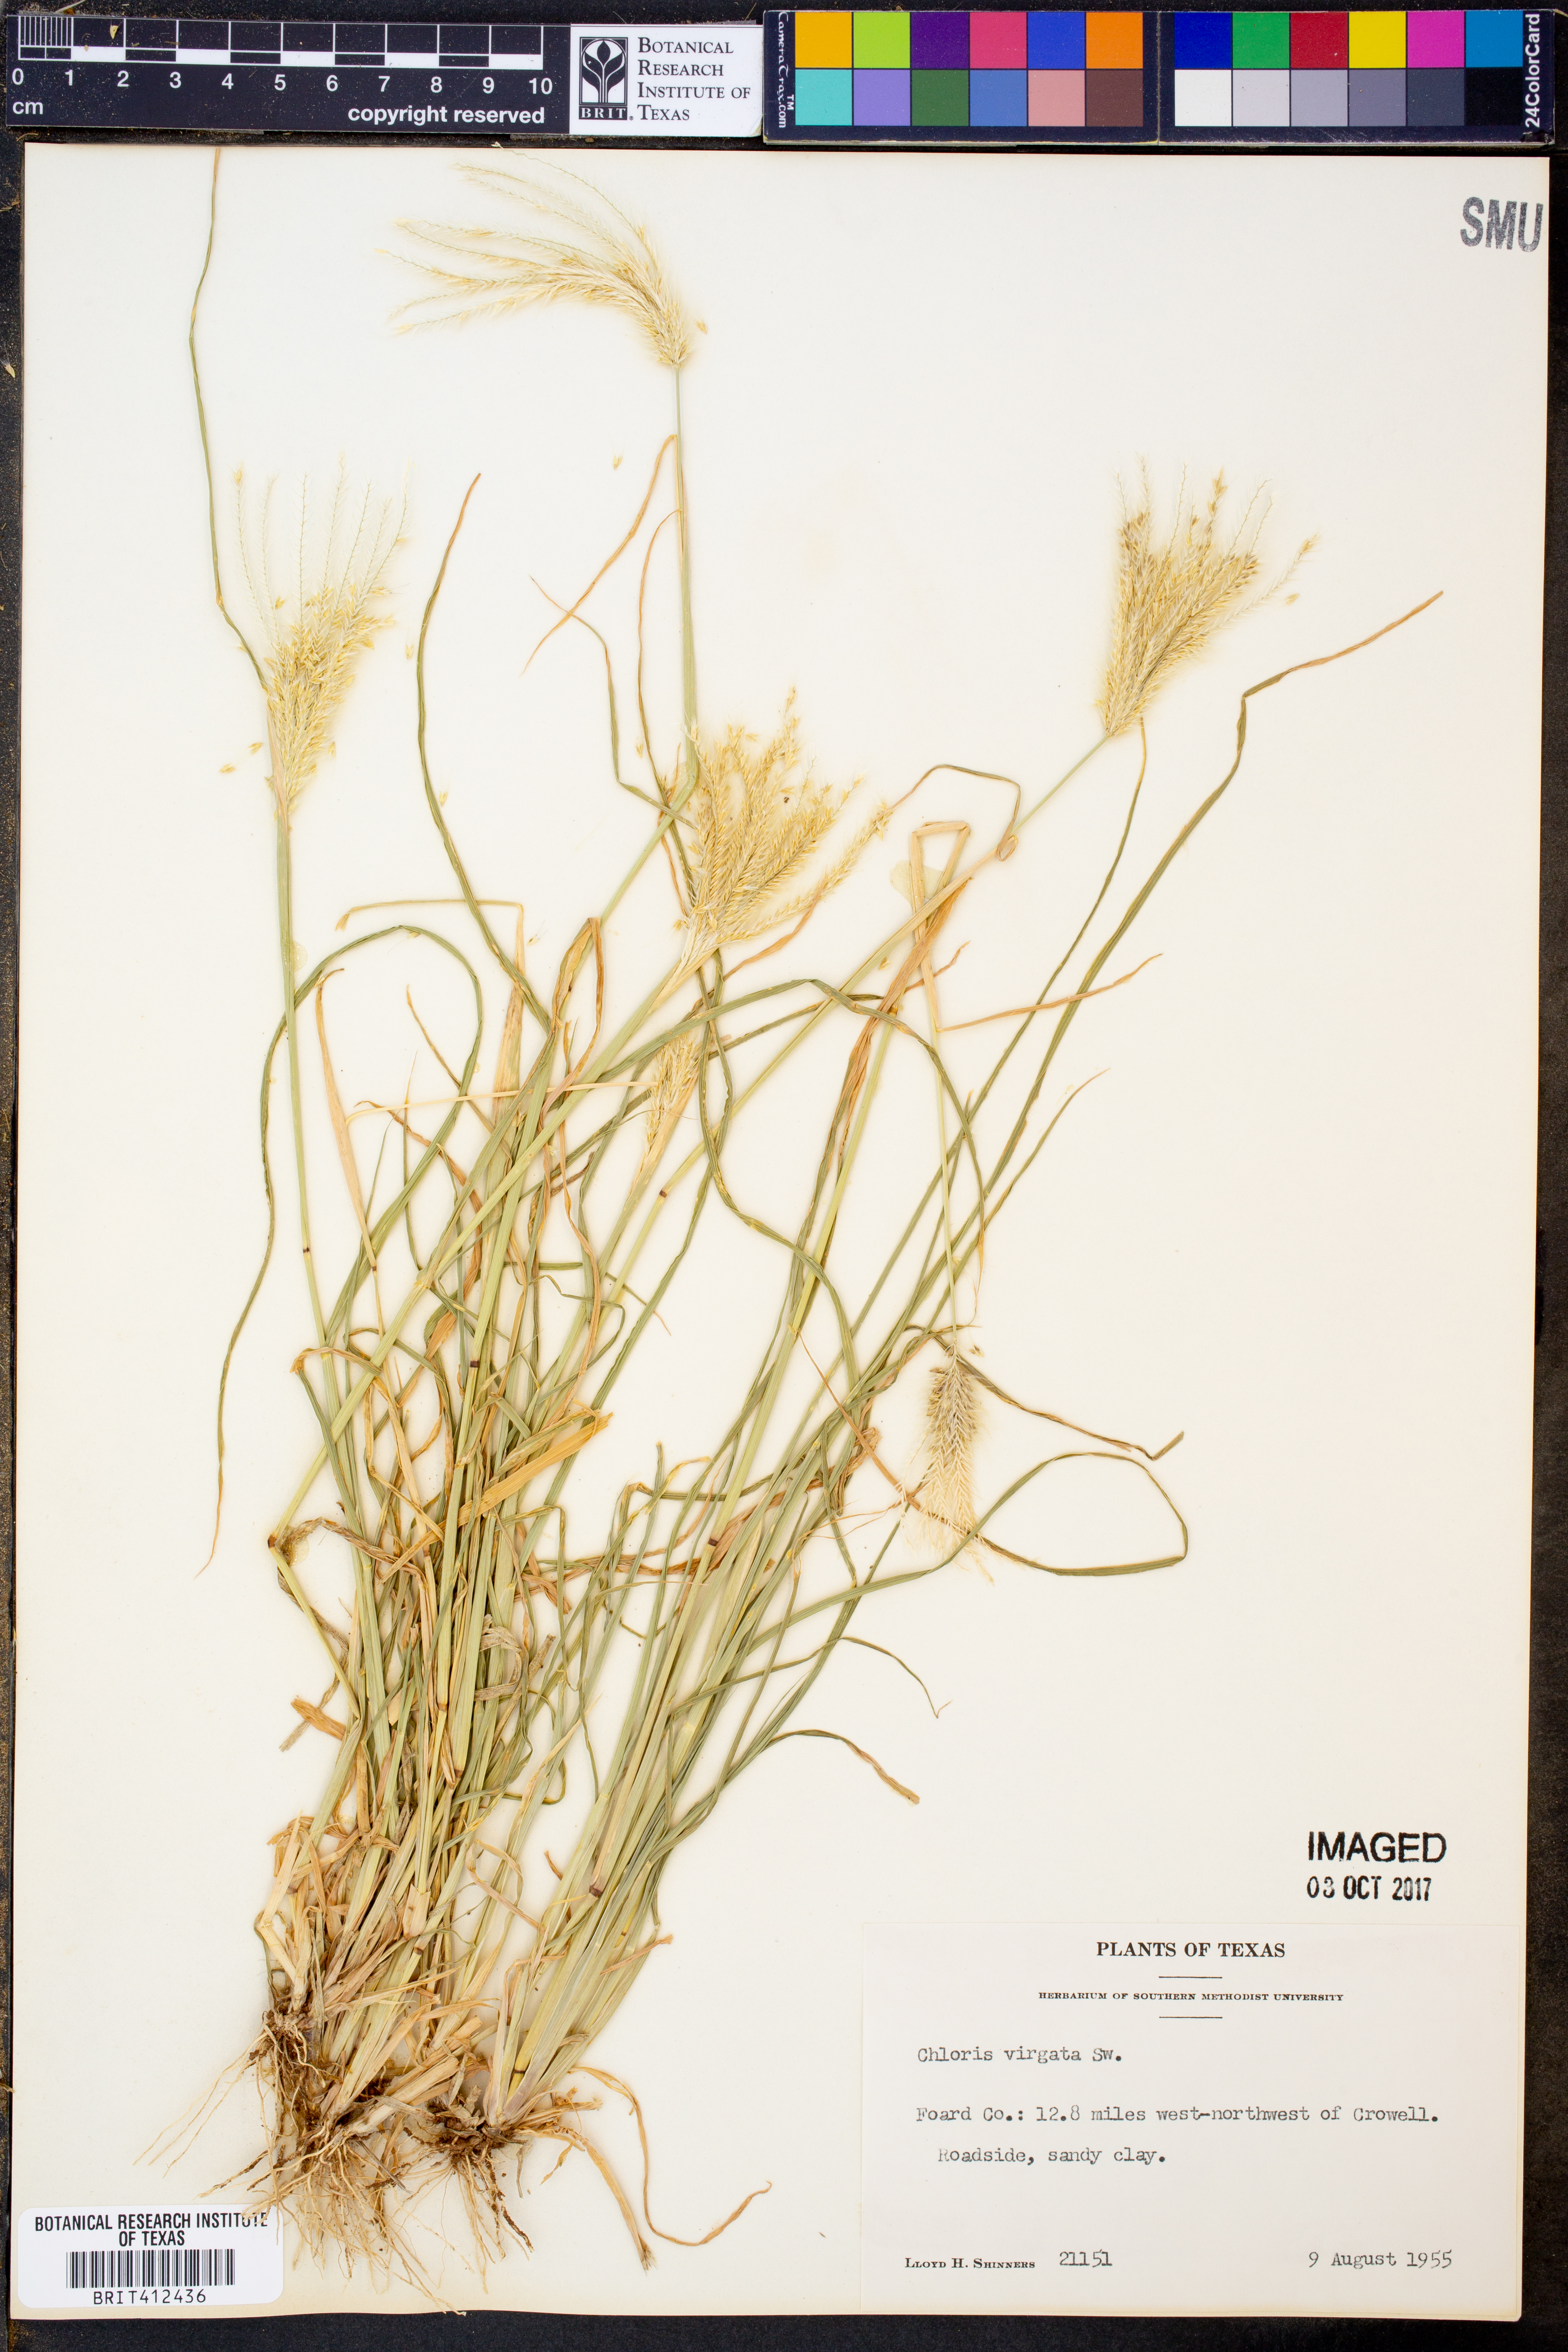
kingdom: Plantae
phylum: Tracheophyta
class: Liliopsida
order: Poales
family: Poaceae
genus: Chloris
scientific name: Chloris virgata
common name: Feathery rhodes-grass
